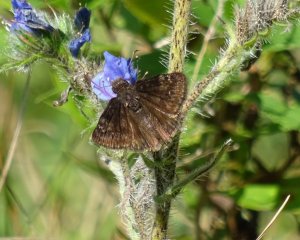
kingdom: Animalia
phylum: Arthropoda
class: Insecta
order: Lepidoptera
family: Hesperiidae
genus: Gesta
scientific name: Gesta
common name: Wild Indigo Duskywing
